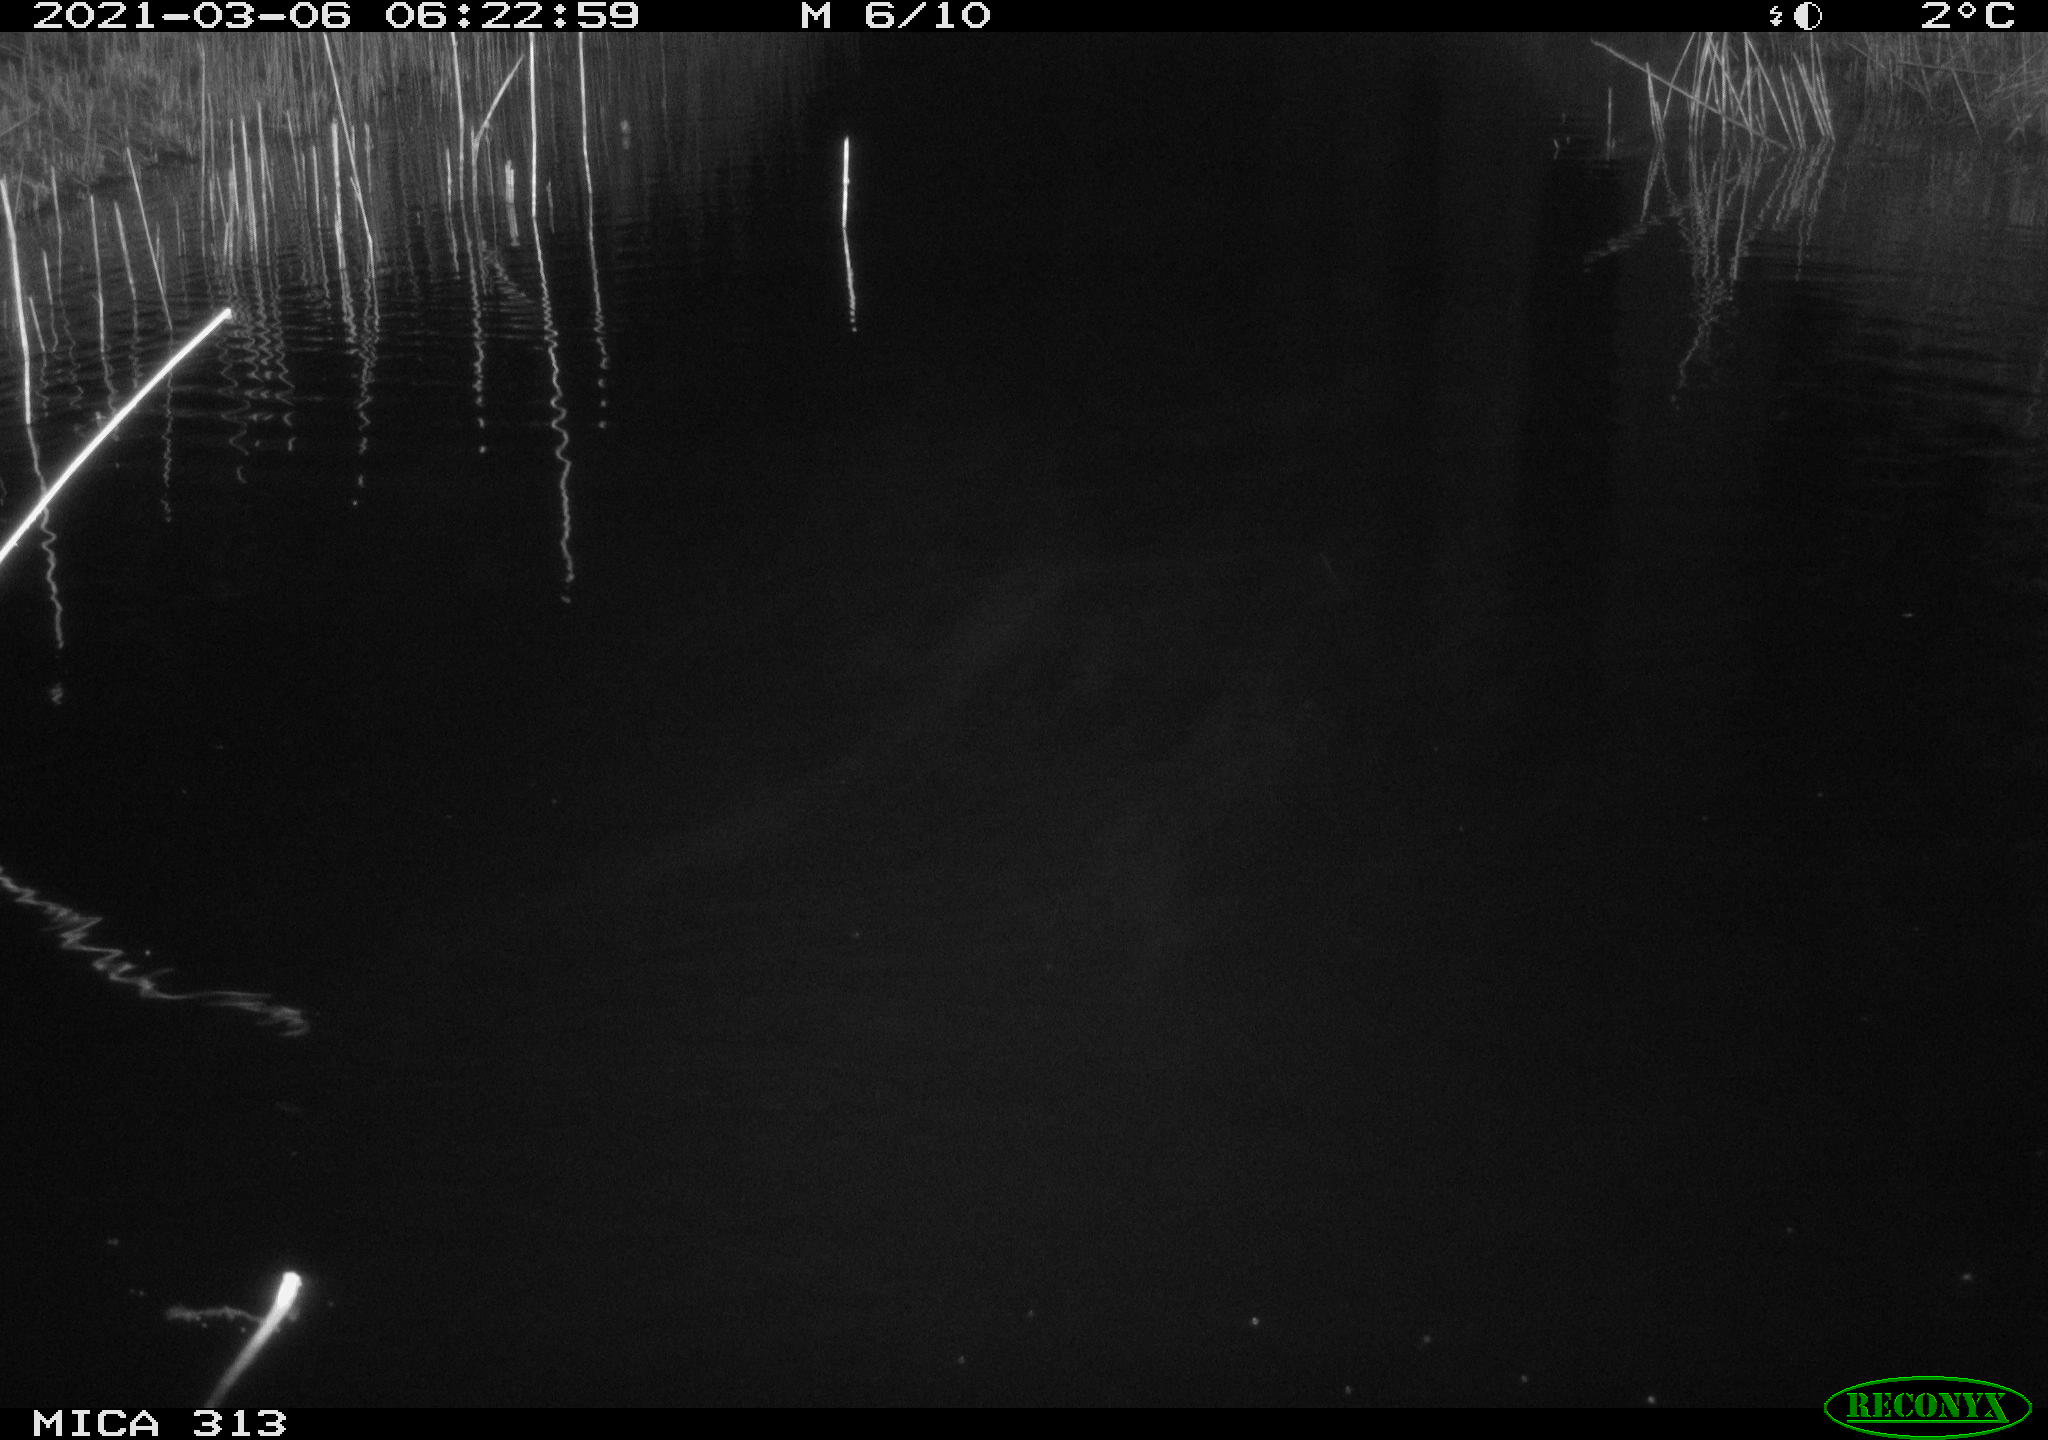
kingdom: Animalia
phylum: Chordata
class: Mammalia
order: Rodentia
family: Cricetidae
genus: Ondatra
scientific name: Ondatra zibethicus
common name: Muskrat
